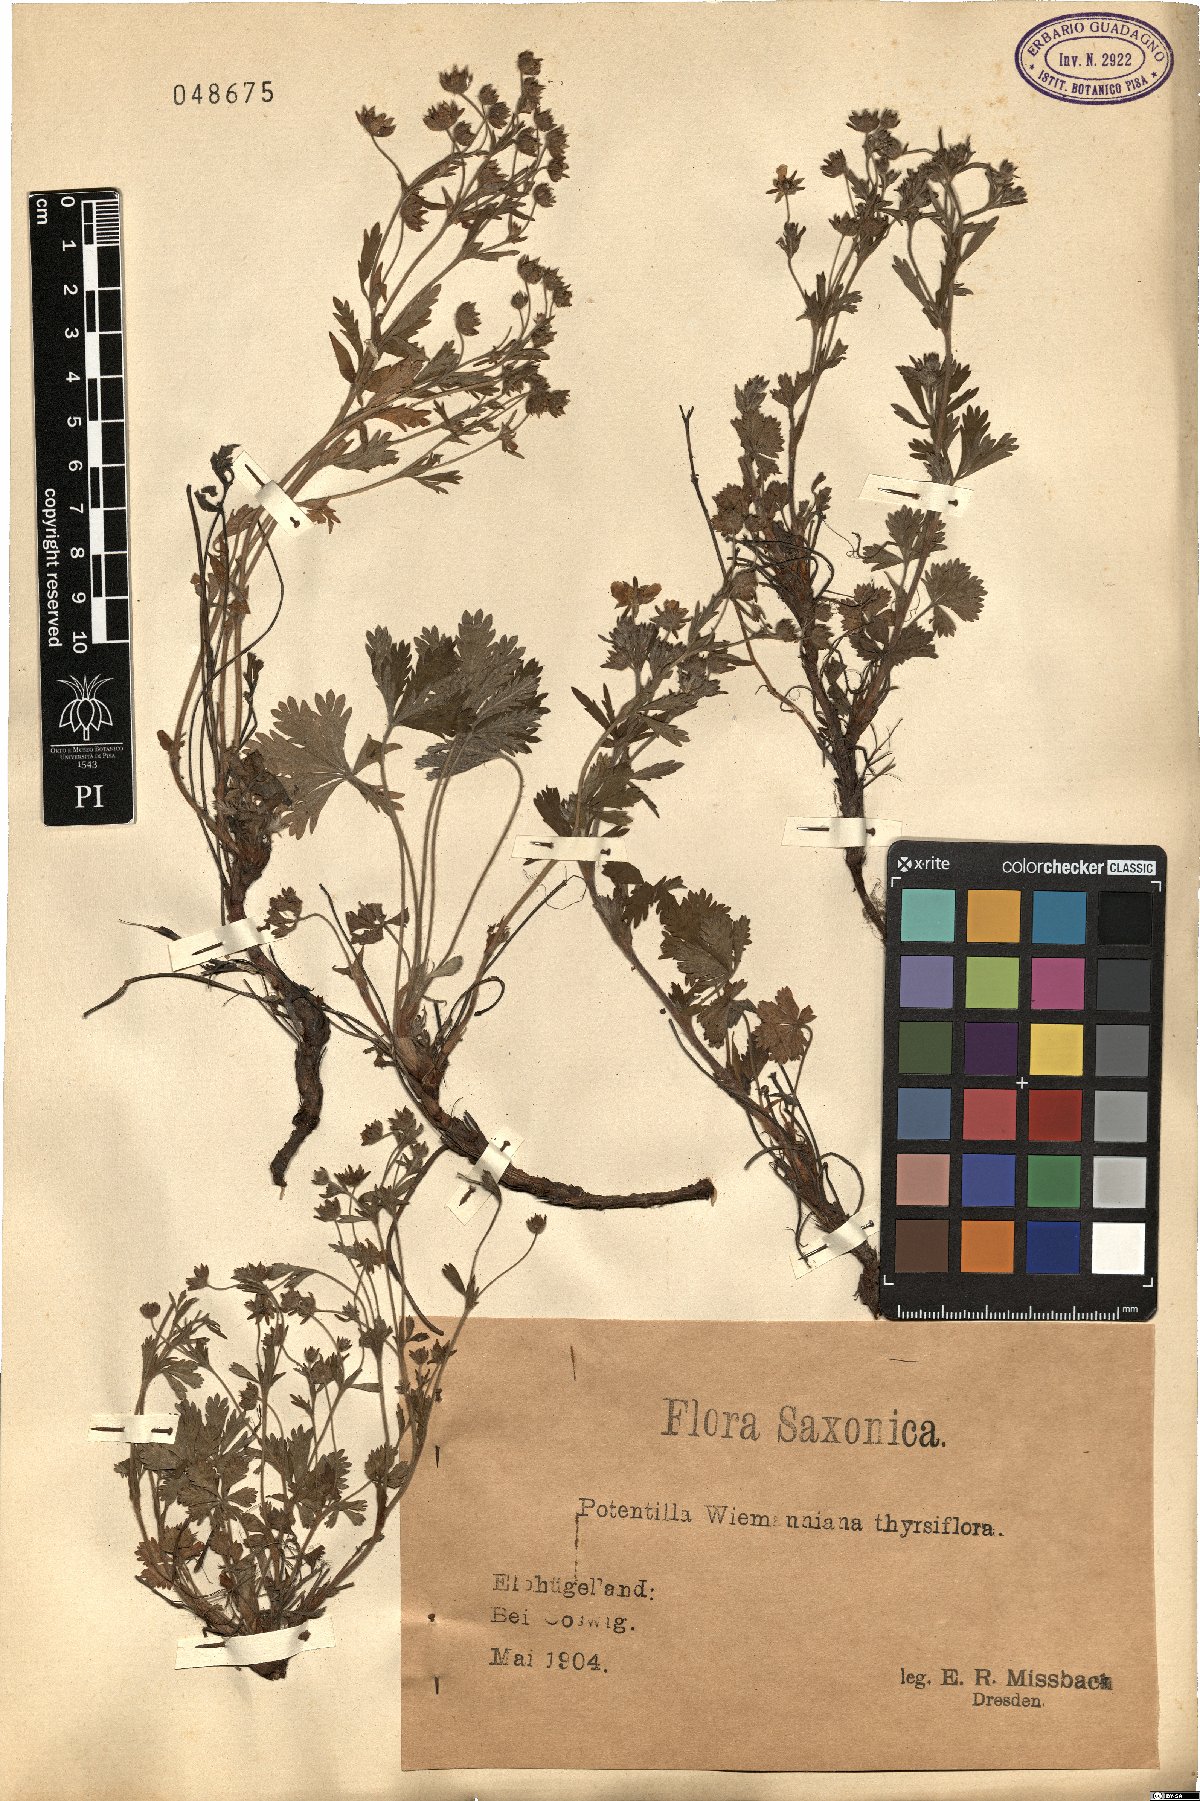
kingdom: Plantae
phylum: Tracheophyta
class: Magnoliopsida
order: Rosales
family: Rosaceae
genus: Potentilla
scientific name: Potentilla wimanniana
